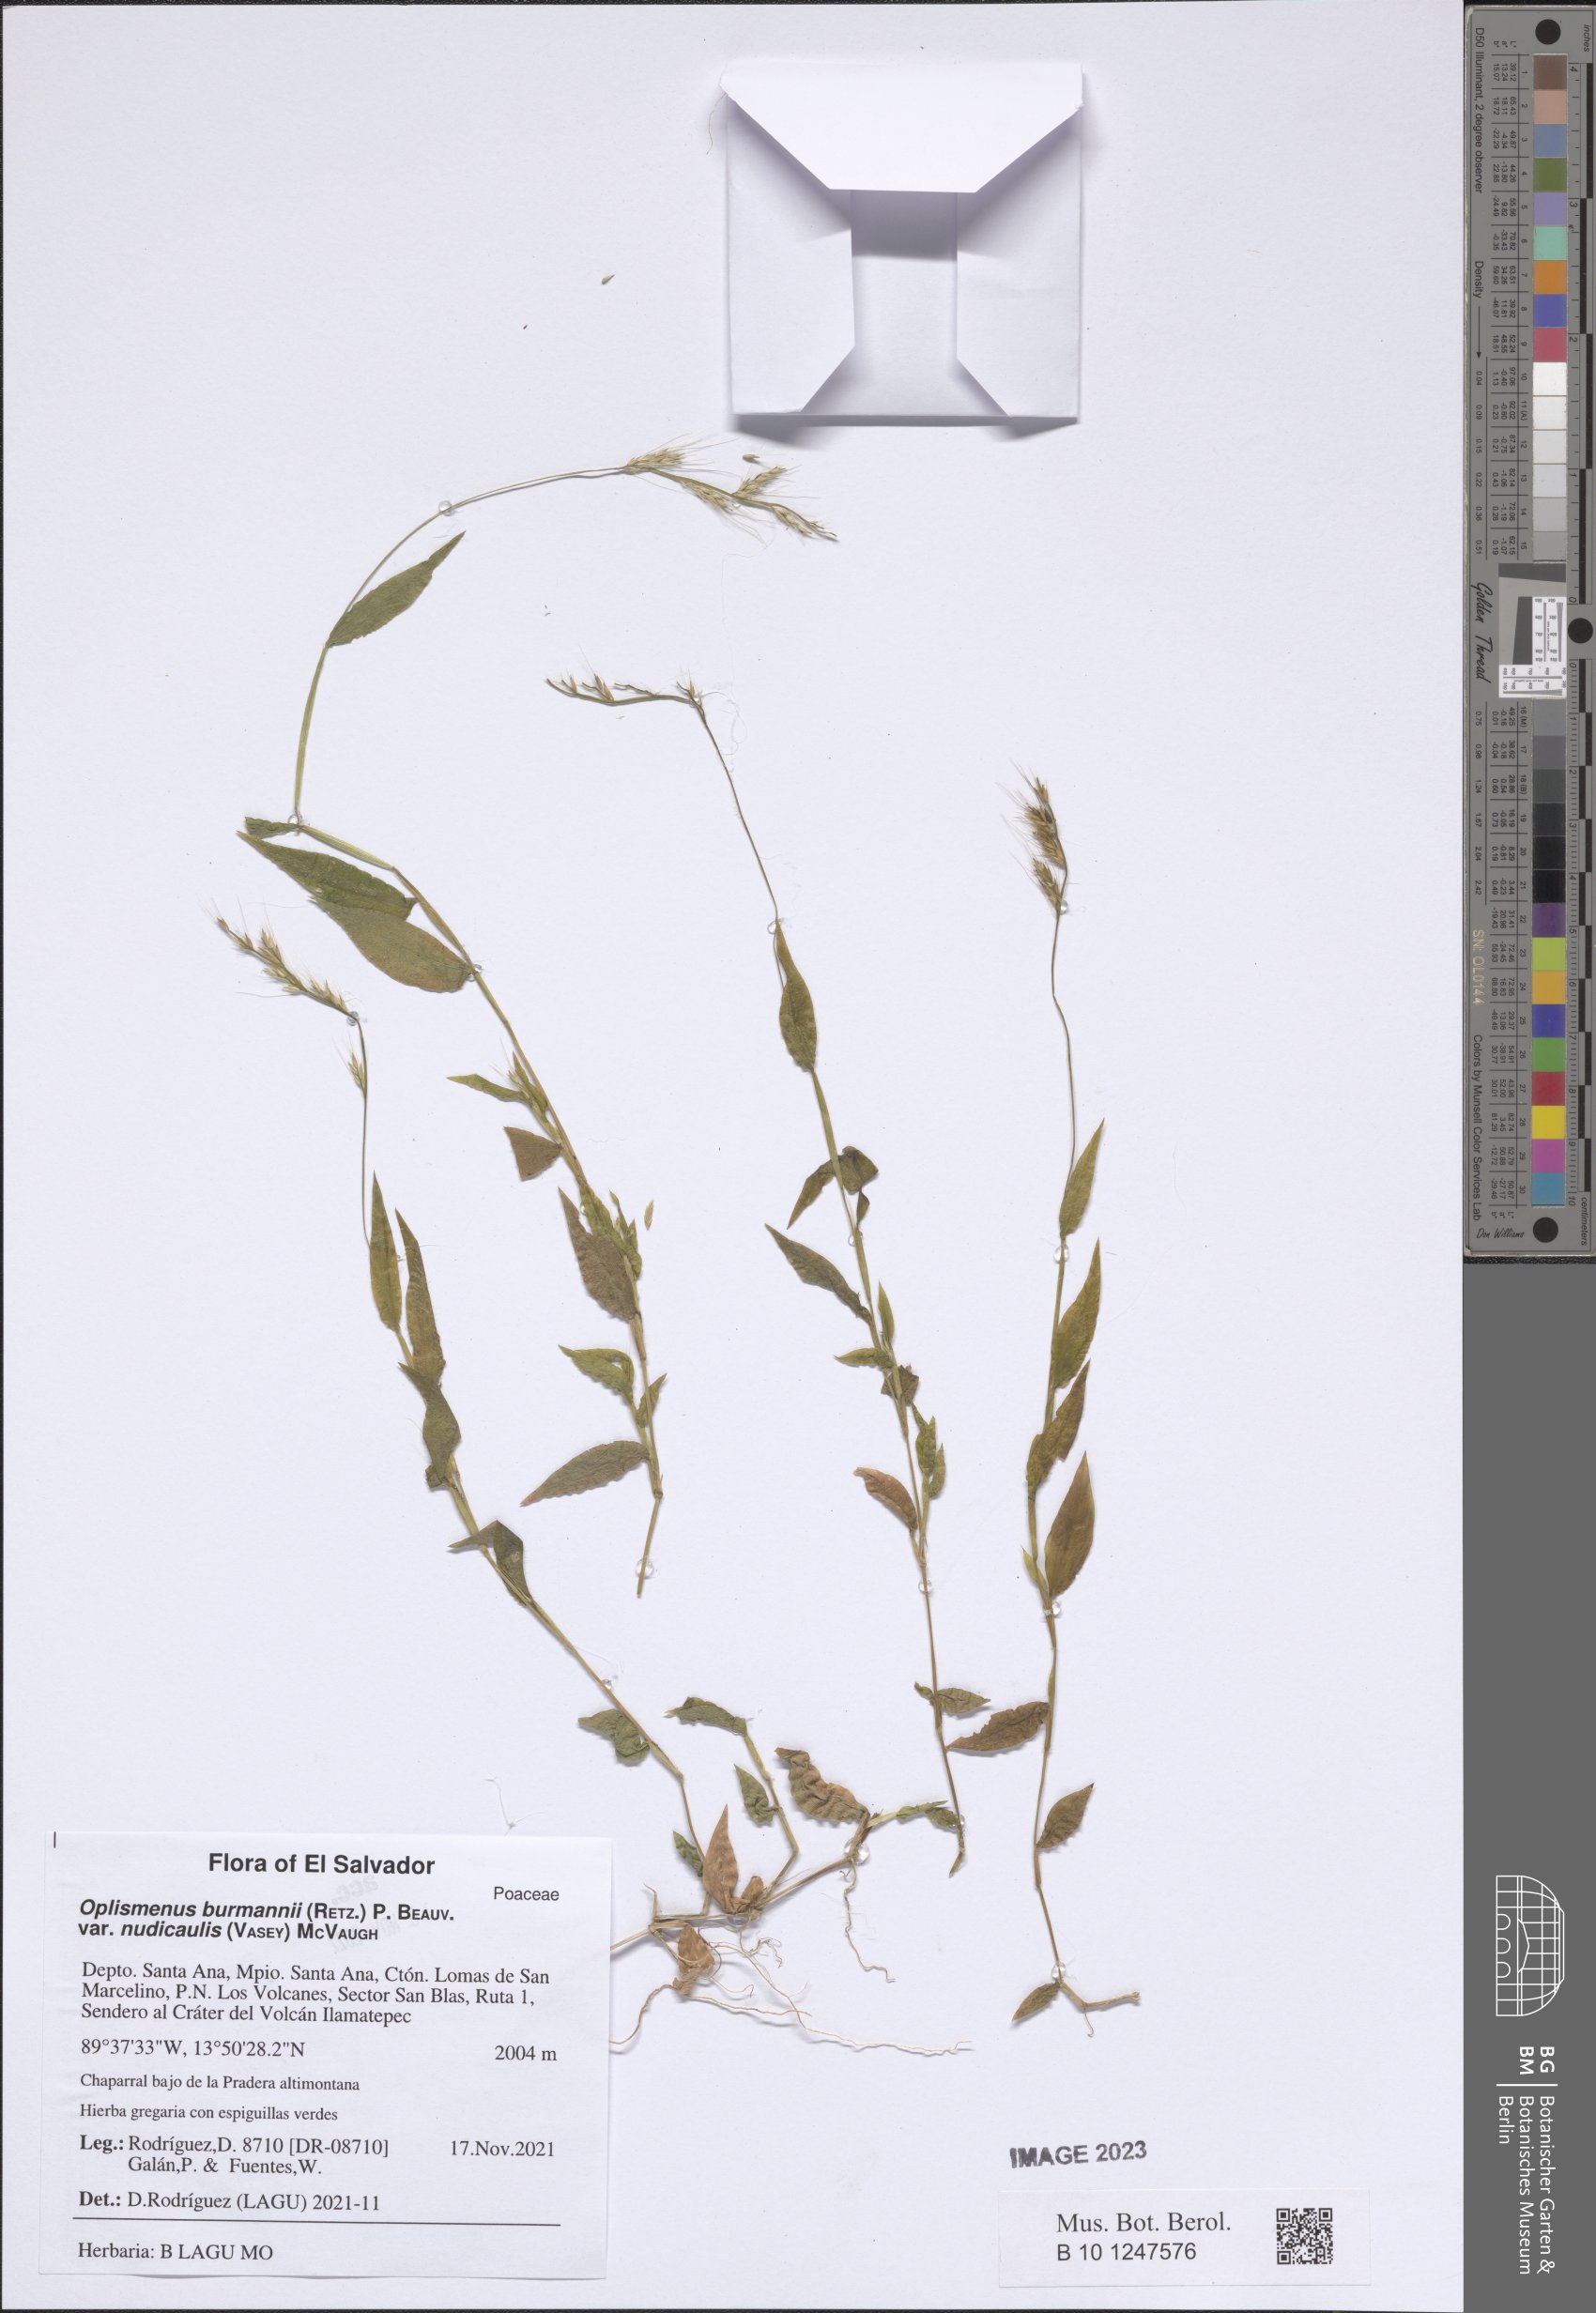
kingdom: Plantae
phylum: Tracheophyta
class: Liliopsida
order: Poales
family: Poaceae
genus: Oplismenus
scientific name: Oplismenus burmanni
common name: Burmann's basketgrass
